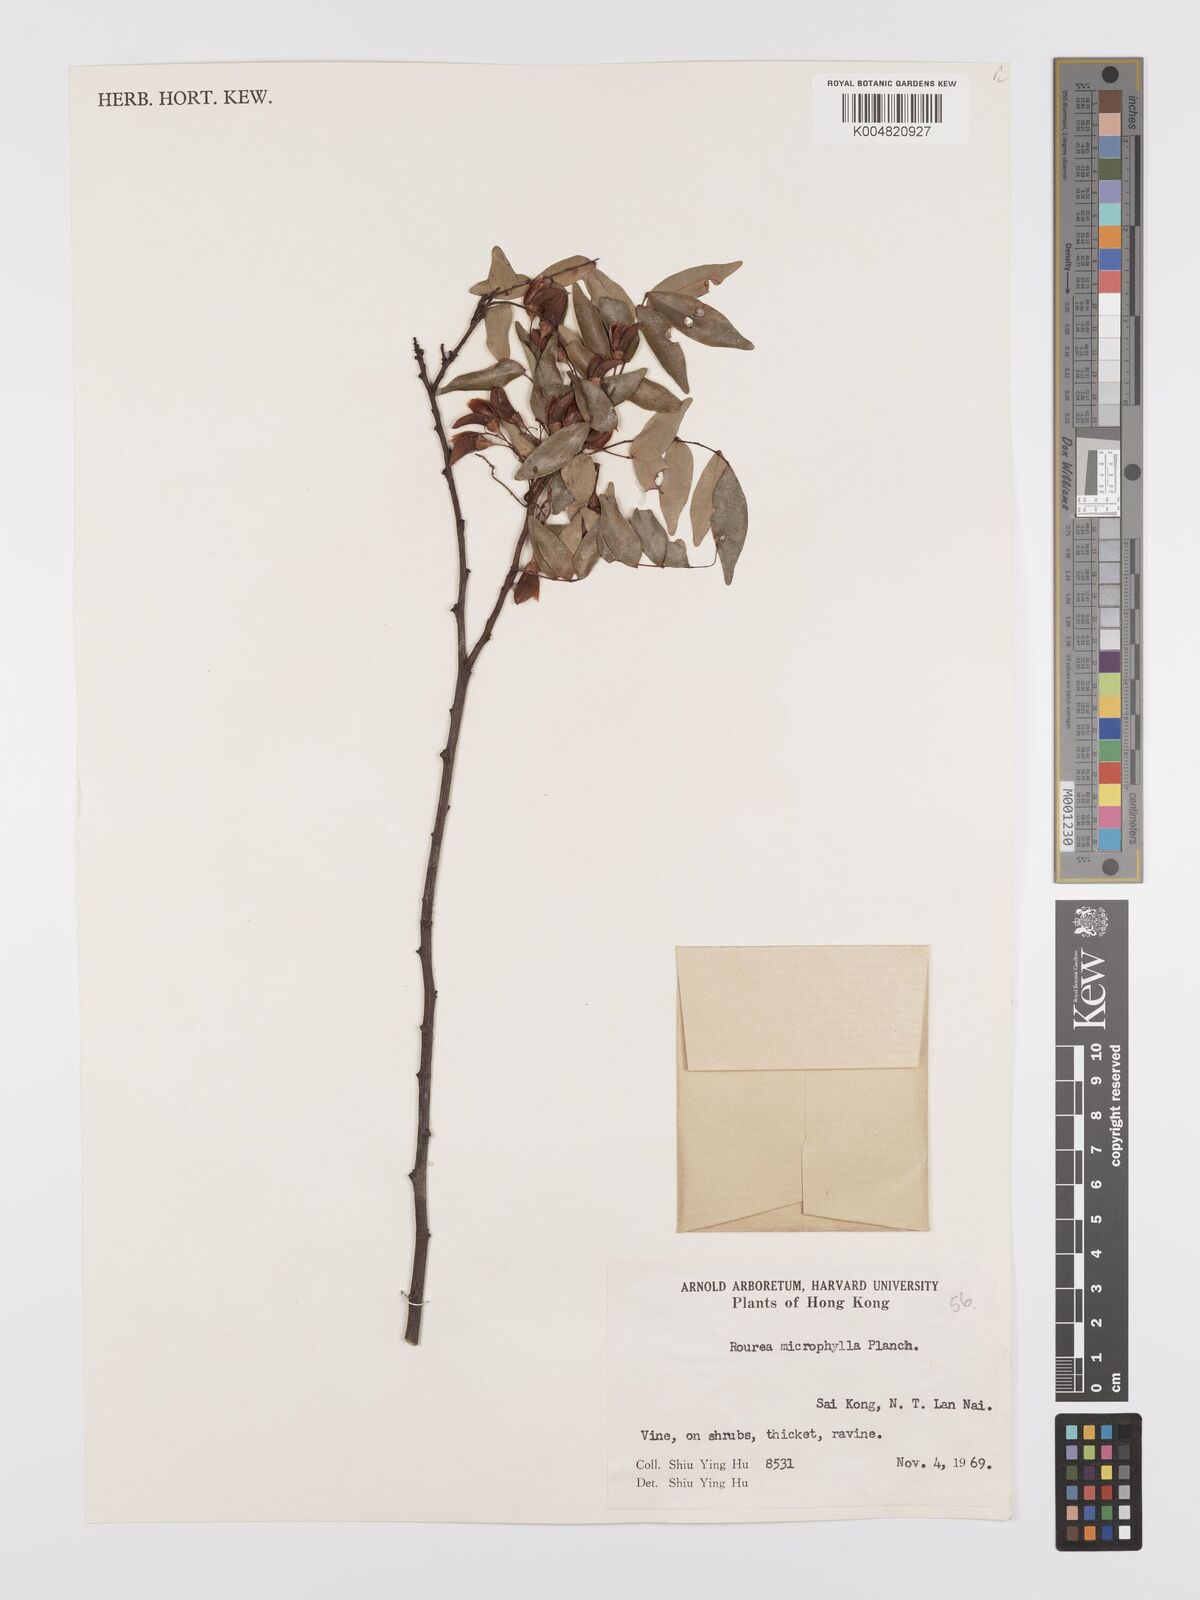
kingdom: Plantae
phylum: Tracheophyta
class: Magnoliopsida
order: Oxalidales
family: Connaraceae
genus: Rourea
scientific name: Rourea microphylla
